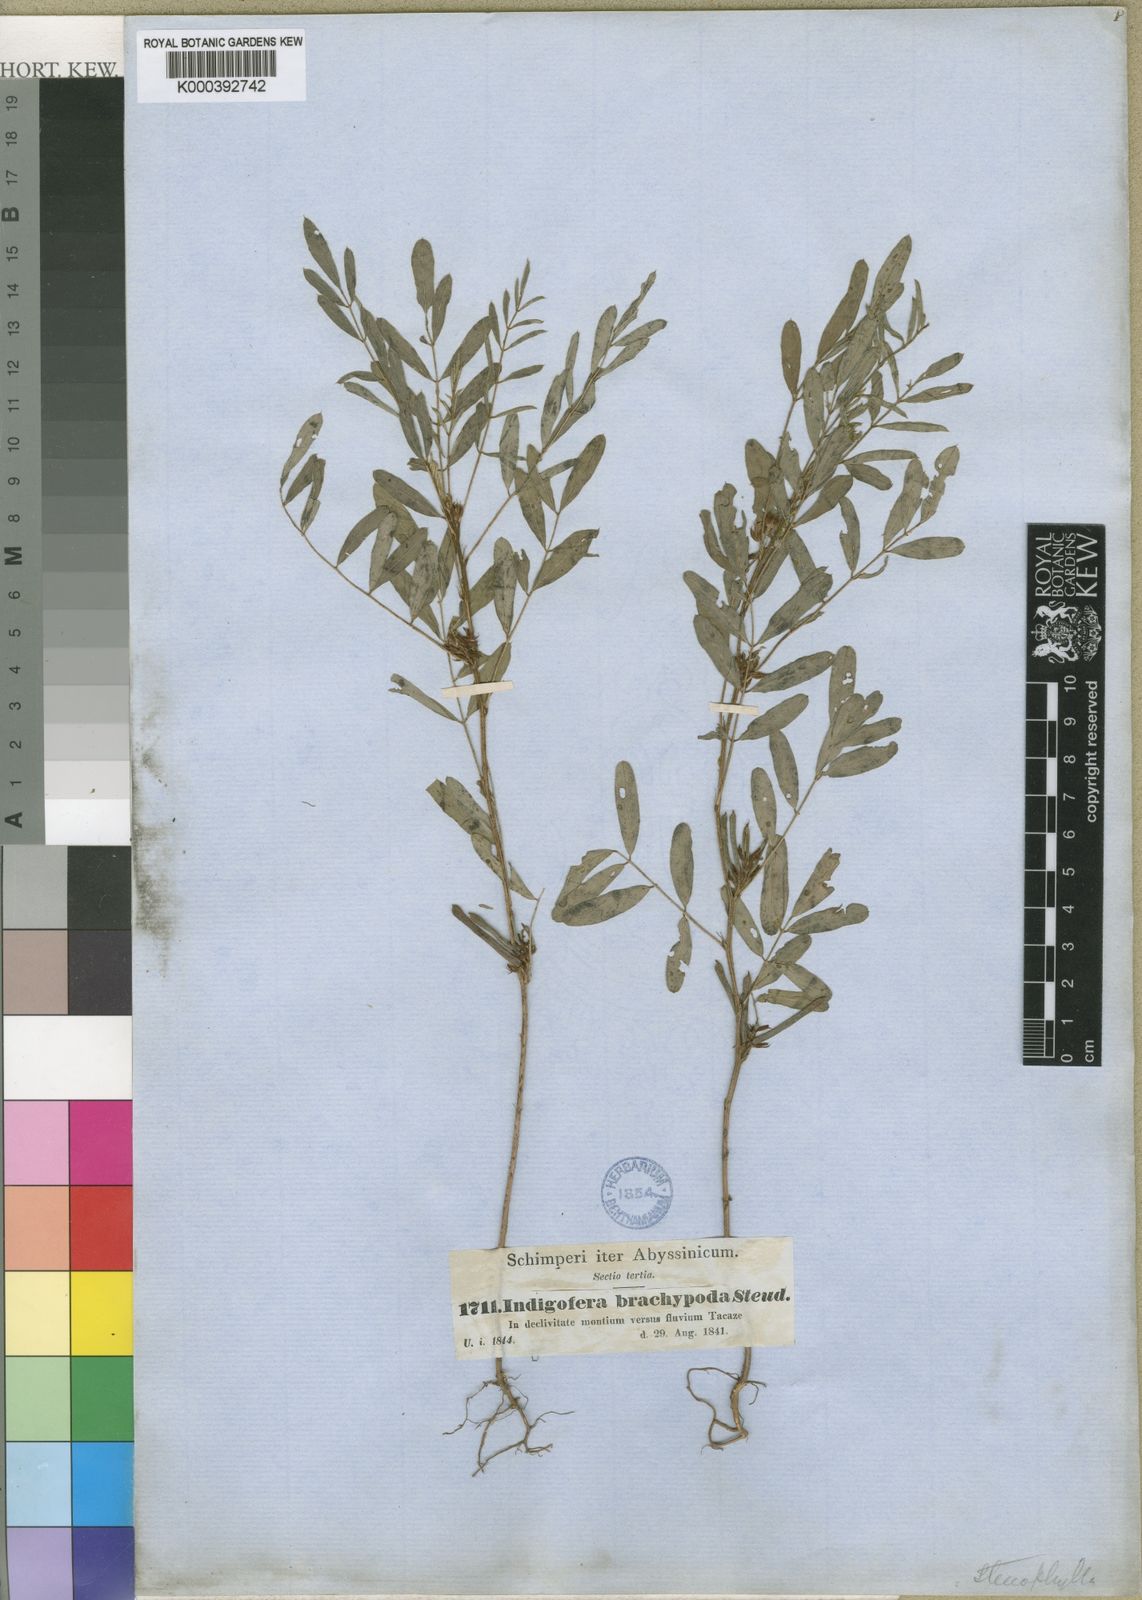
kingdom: Plantae
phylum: Tracheophyta
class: Magnoliopsida
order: Fabales
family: Fabaceae
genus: Indigofera
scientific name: Indigofera prieureana
